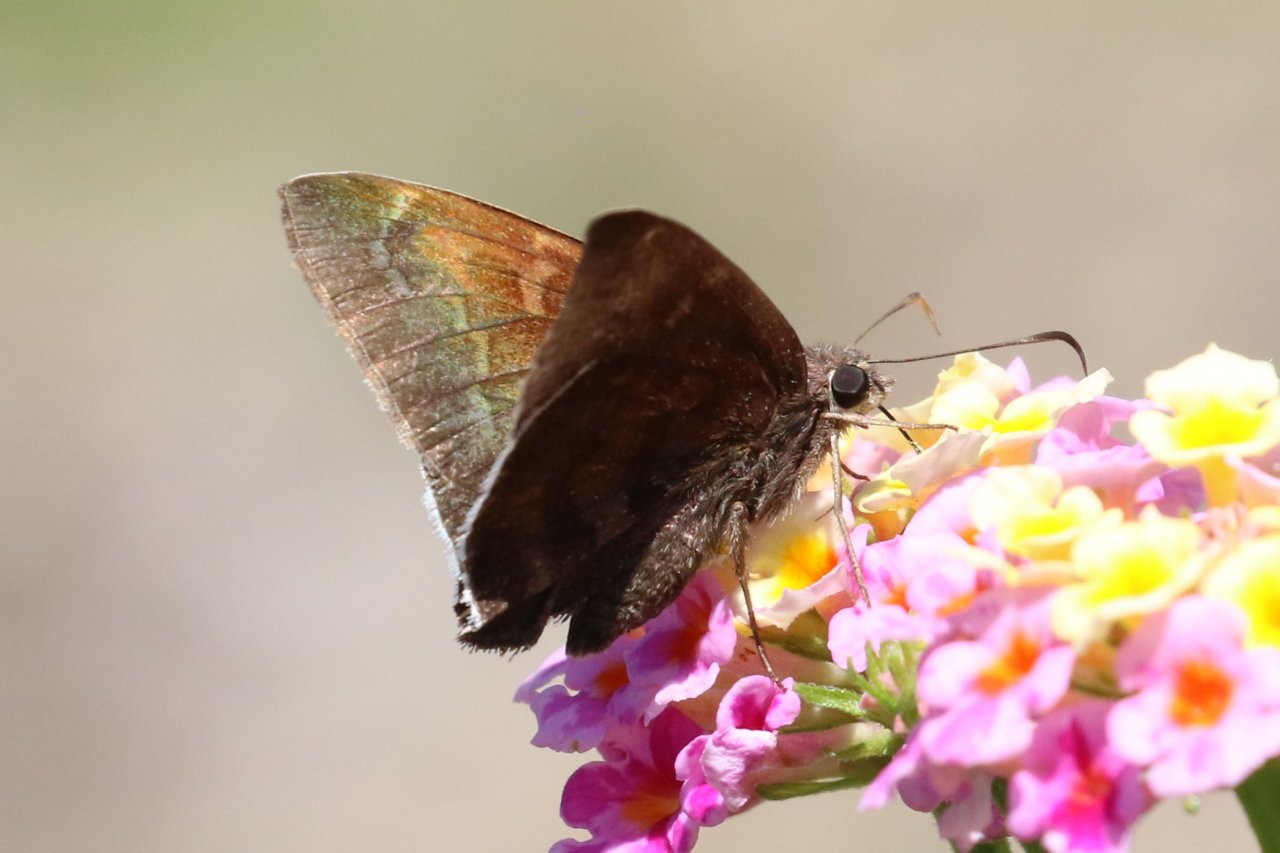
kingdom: Animalia
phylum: Arthropoda
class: Insecta
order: Lepidoptera
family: Hesperiidae
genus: Achalarus
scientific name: Achalarus toxeus
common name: Coyote Cloudywing
